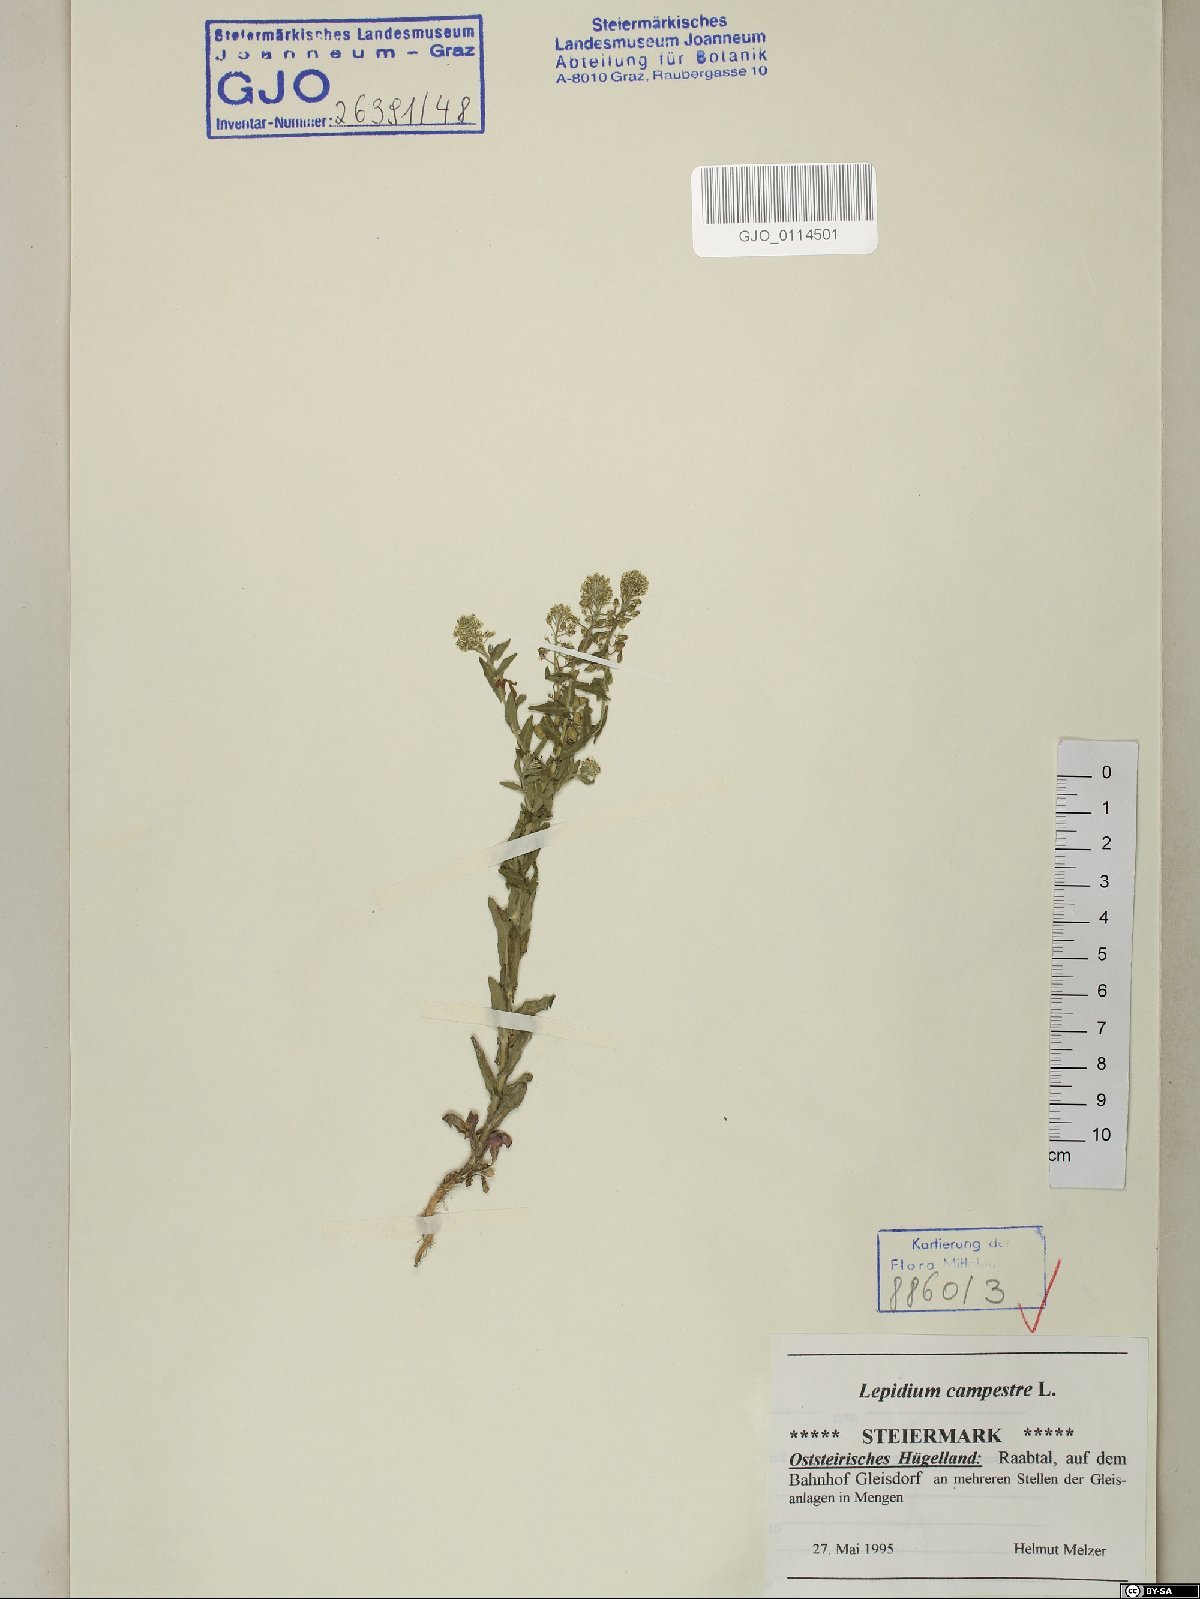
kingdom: Plantae
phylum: Tracheophyta
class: Magnoliopsida
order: Brassicales
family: Brassicaceae
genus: Lepidium
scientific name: Lepidium campestre
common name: Field pepperwort
